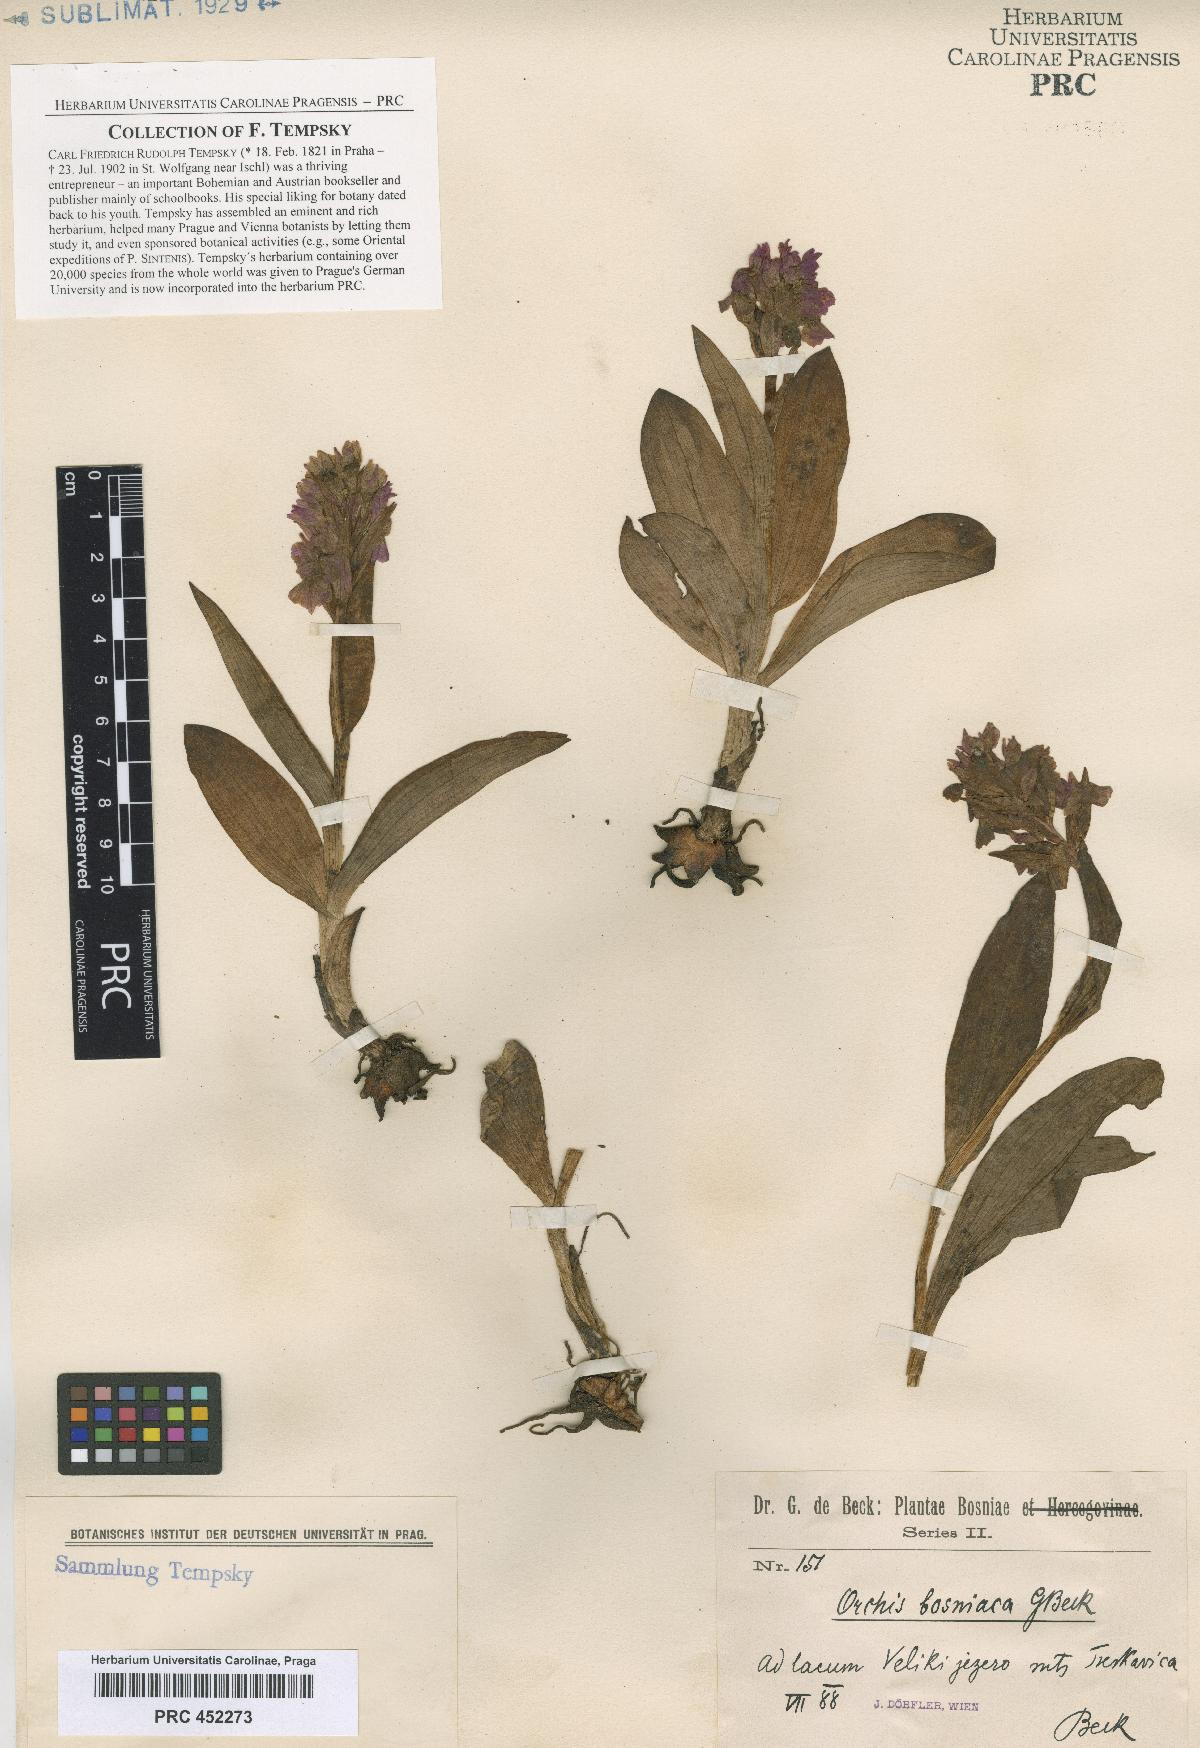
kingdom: Plantae
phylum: Tracheophyta
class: Liliopsida
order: Asparagales
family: Orchidaceae
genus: Dactylorhiza
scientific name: Dactylorhiza majalis
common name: Marsh orchid
